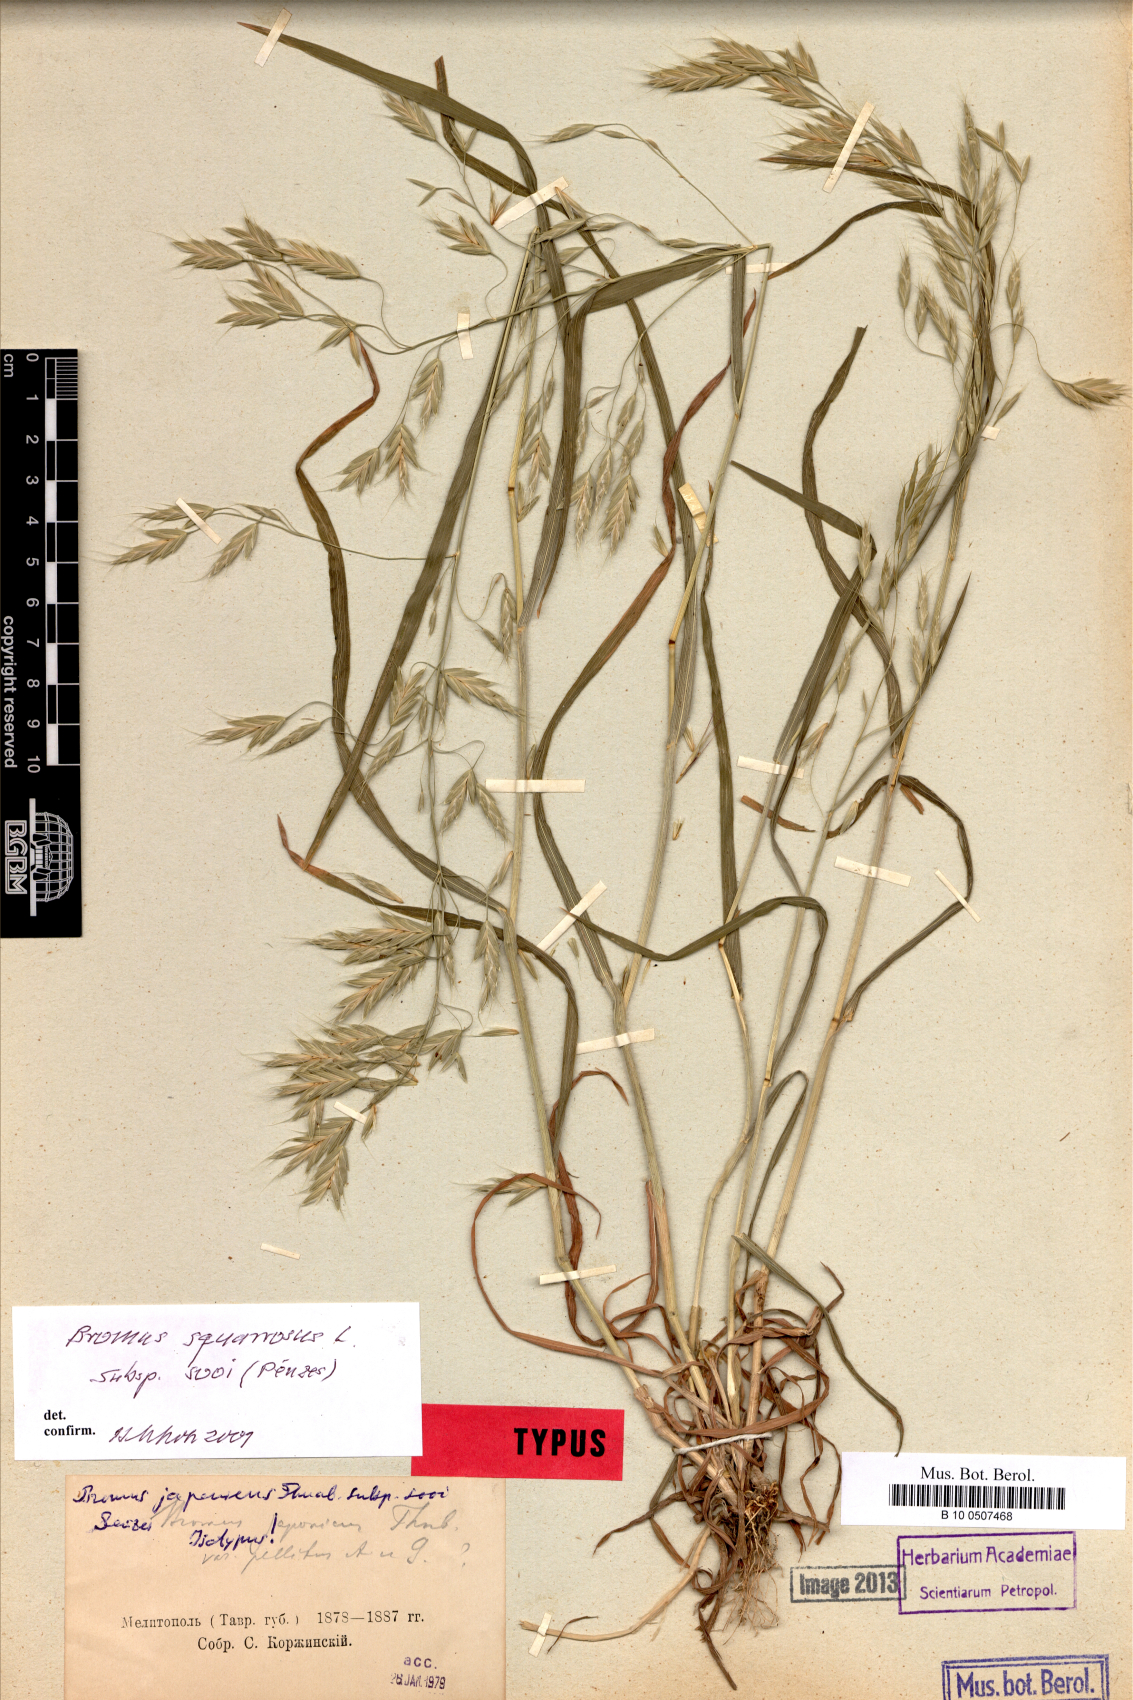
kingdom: Plantae
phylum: Tracheophyta
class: Liliopsida
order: Poales
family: Poaceae
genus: Bromus
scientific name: Bromus rigidus
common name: Ripgut brome
